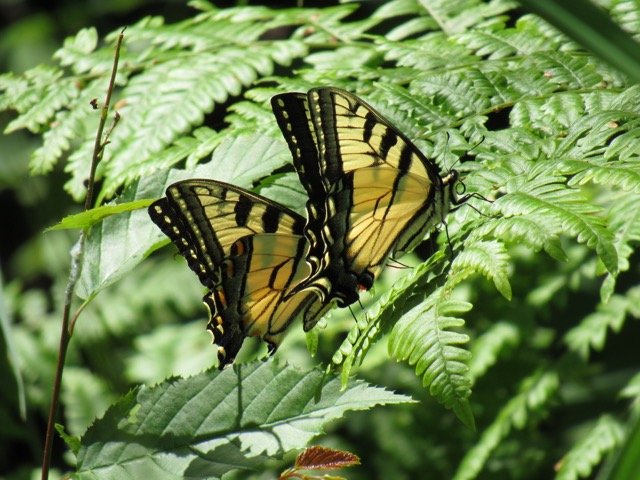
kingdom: Animalia
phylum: Arthropoda
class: Insecta
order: Lepidoptera
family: Papilionidae
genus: Pterourus
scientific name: Pterourus
